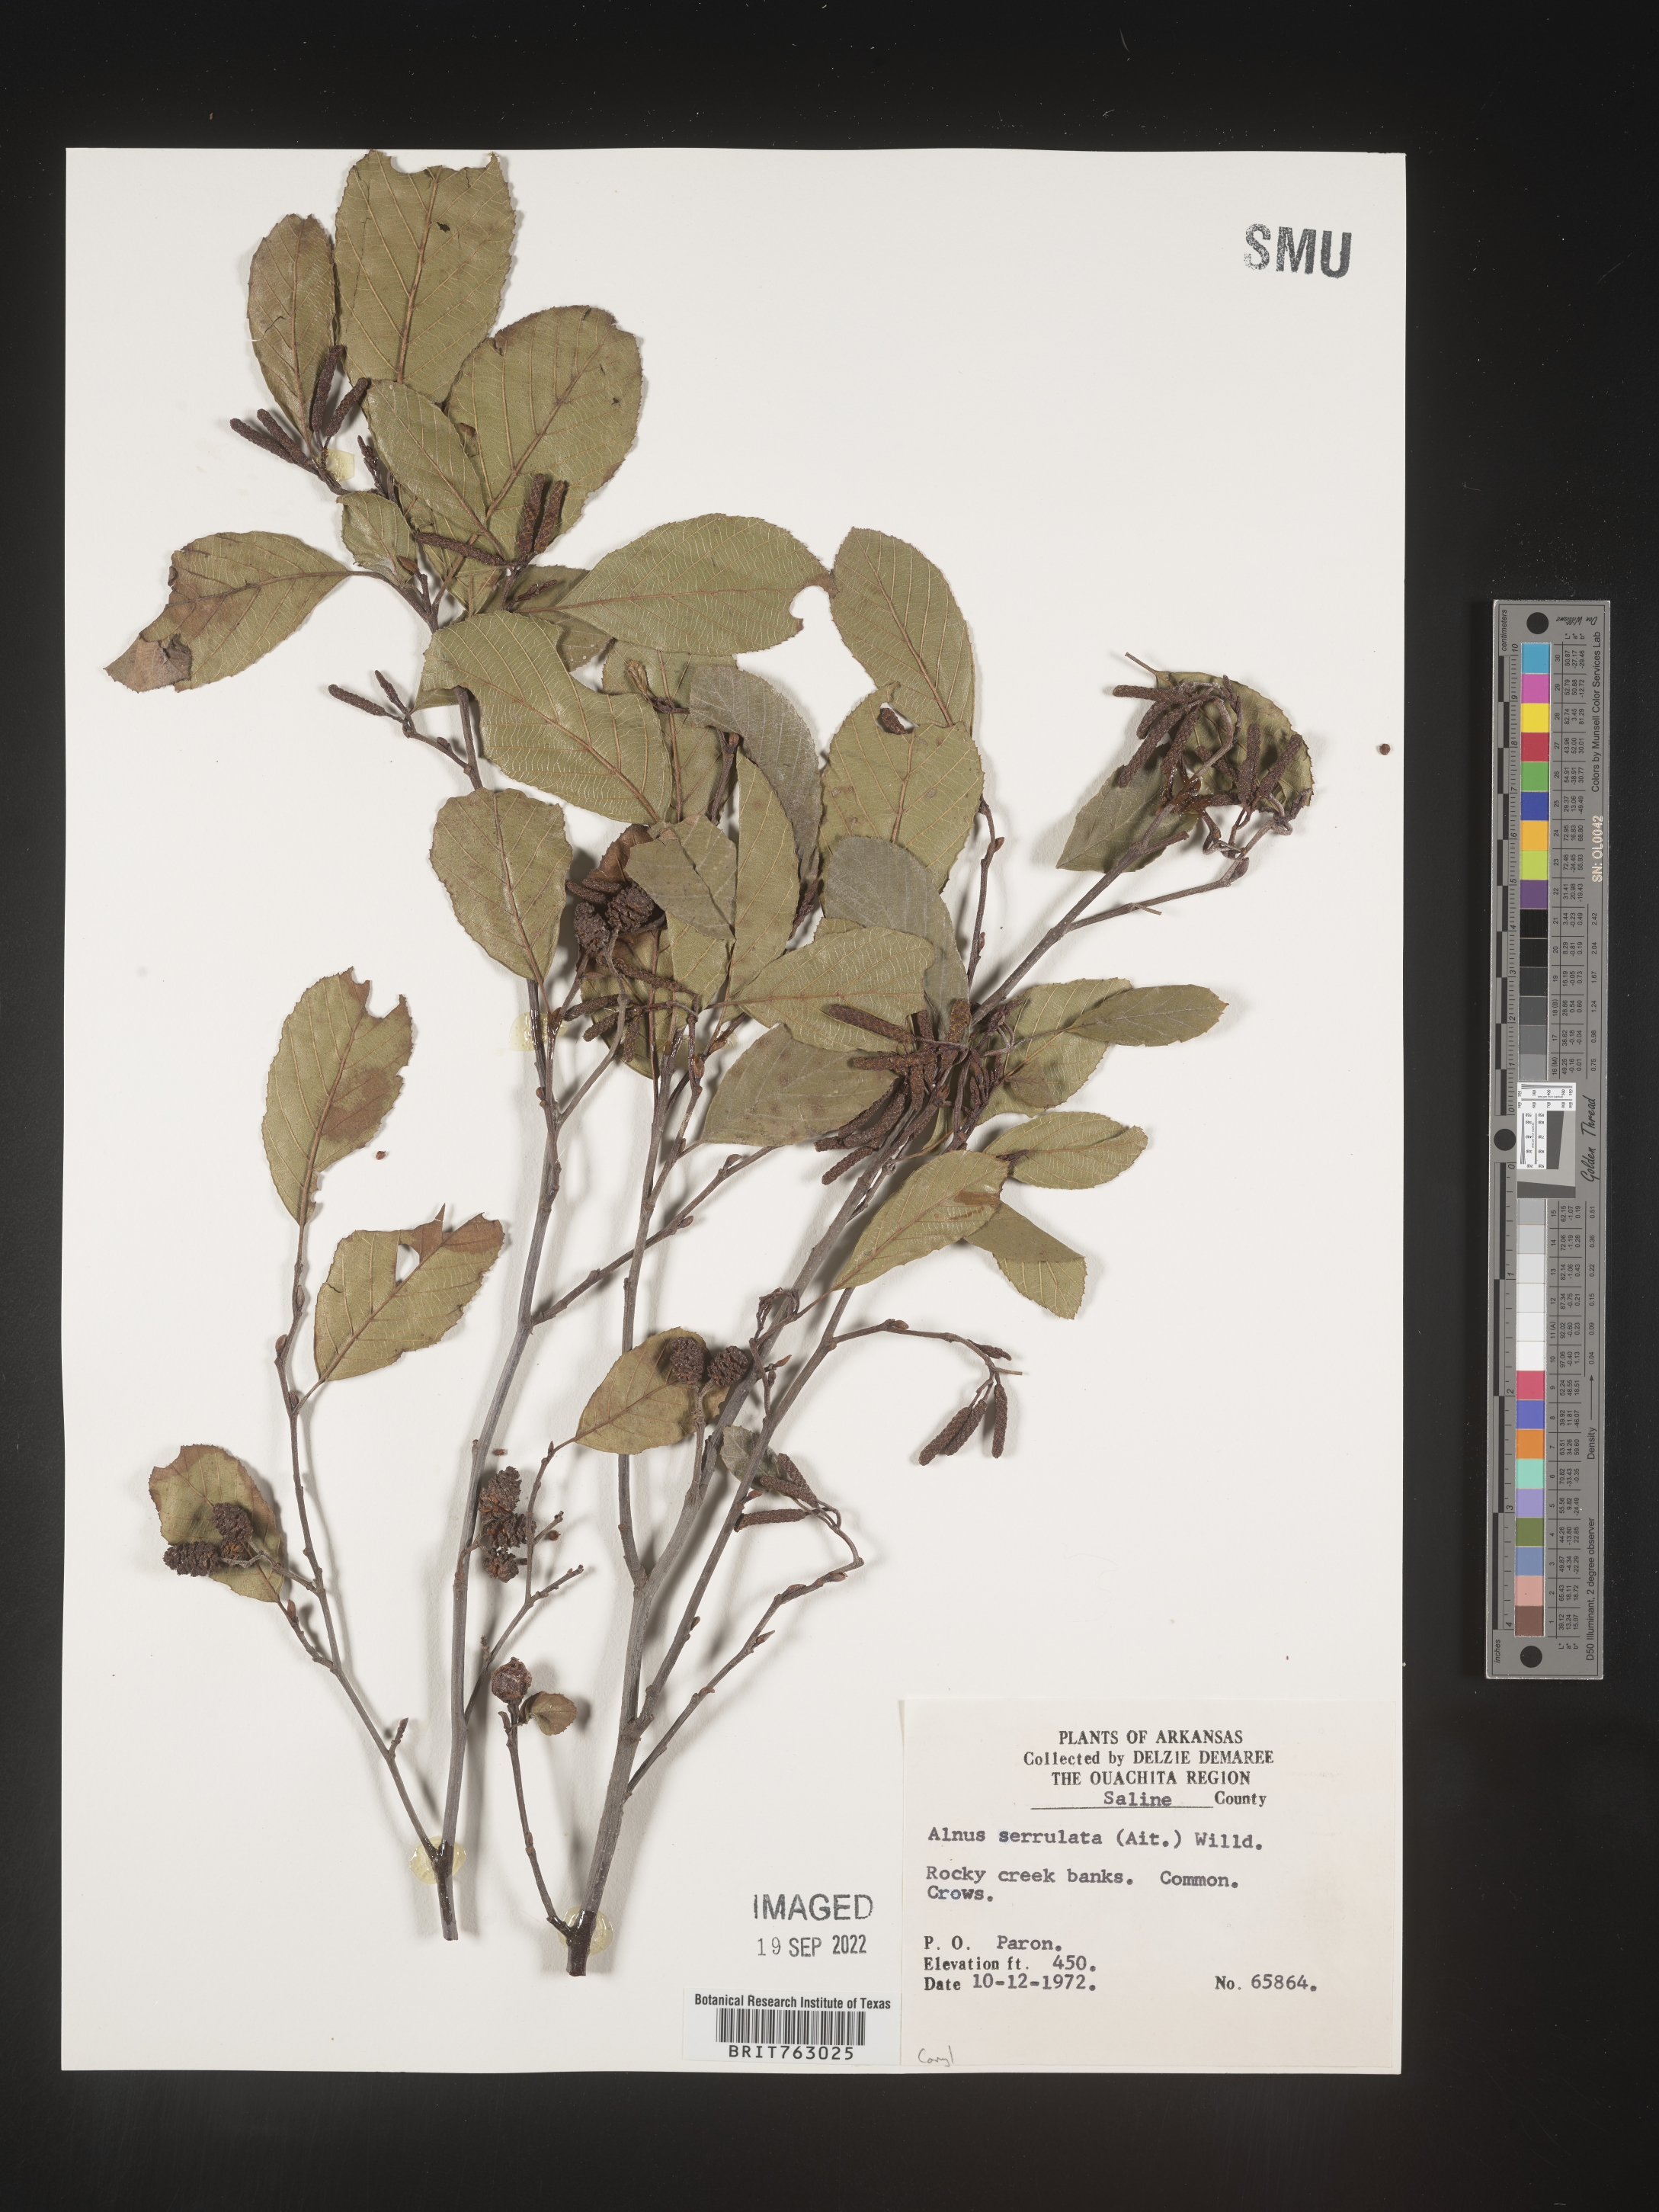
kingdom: Plantae
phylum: Tracheophyta
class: Magnoliopsida
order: Fagales
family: Betulaceae
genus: Alnus
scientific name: Alnus serrulata
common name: Hazel alder
